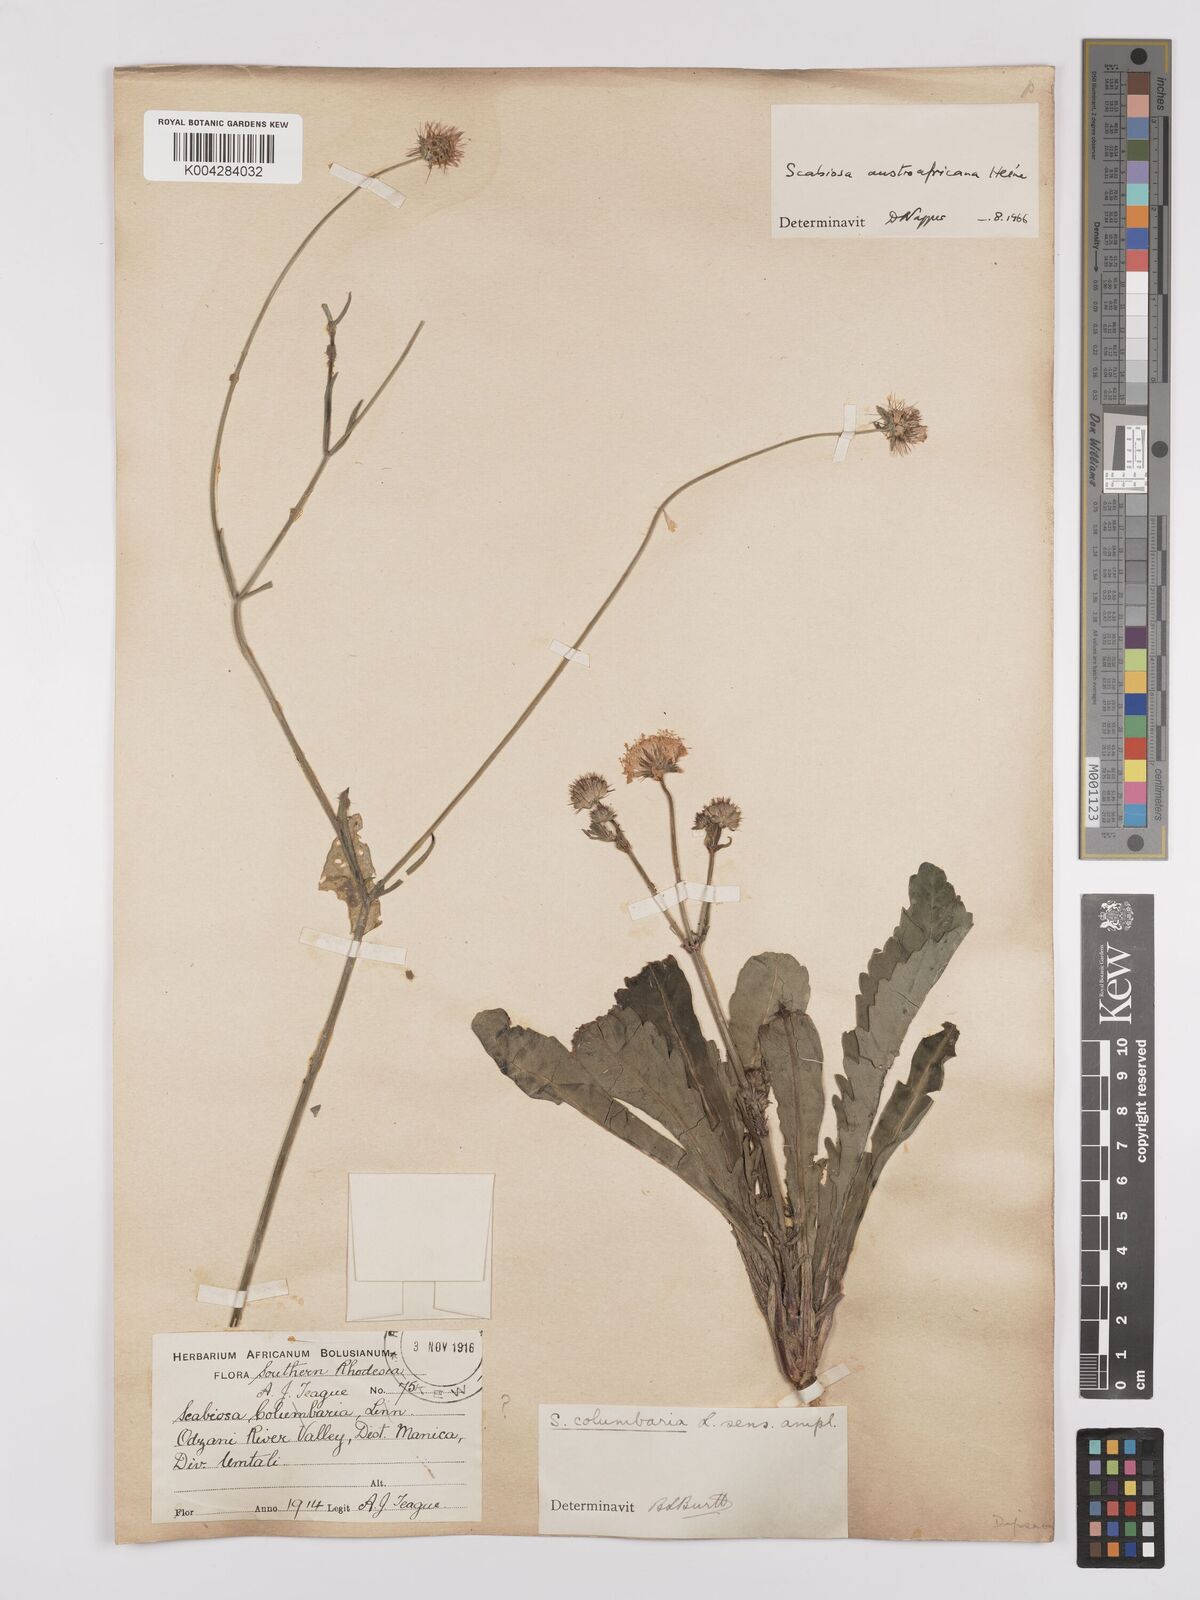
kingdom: Plantae
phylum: Tracheophyta
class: Magnoliopsida
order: Dipsacales
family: Caprifoliaceae
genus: Scabiosa
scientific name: Scabiosa austroafricana
